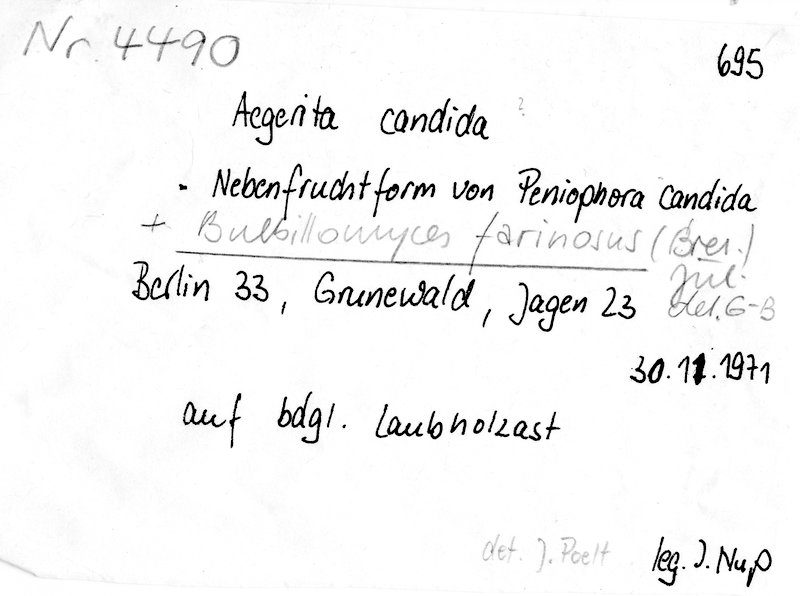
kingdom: Fungi
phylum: Basidiomycota
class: Agaricomycetes
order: Polyporales
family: Meruliaceae
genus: Bulbillomyces
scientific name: Bulbillomyces farinosus
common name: Couscous crust
